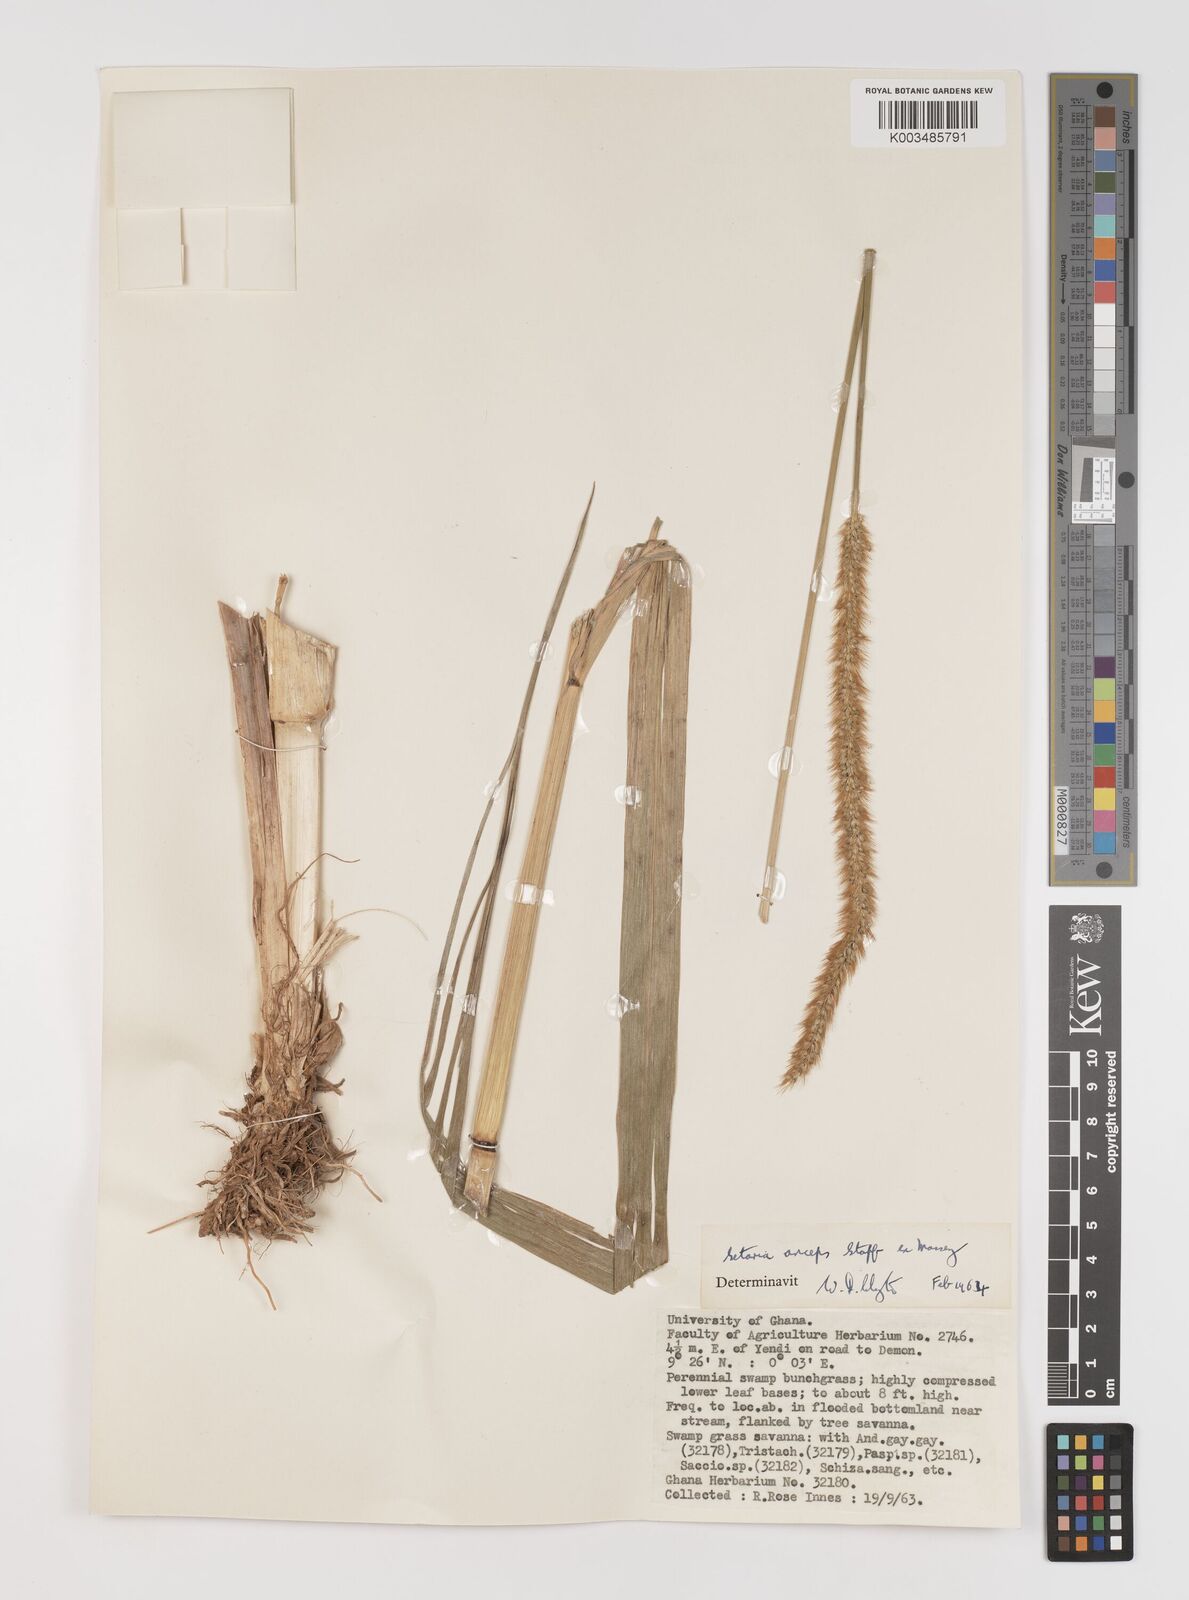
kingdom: Plantae
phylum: Tracheophyta
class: Liliopsida
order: Poales
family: Poaceae
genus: Setaria
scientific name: Setaria sphacelata
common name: African bristlegrass
